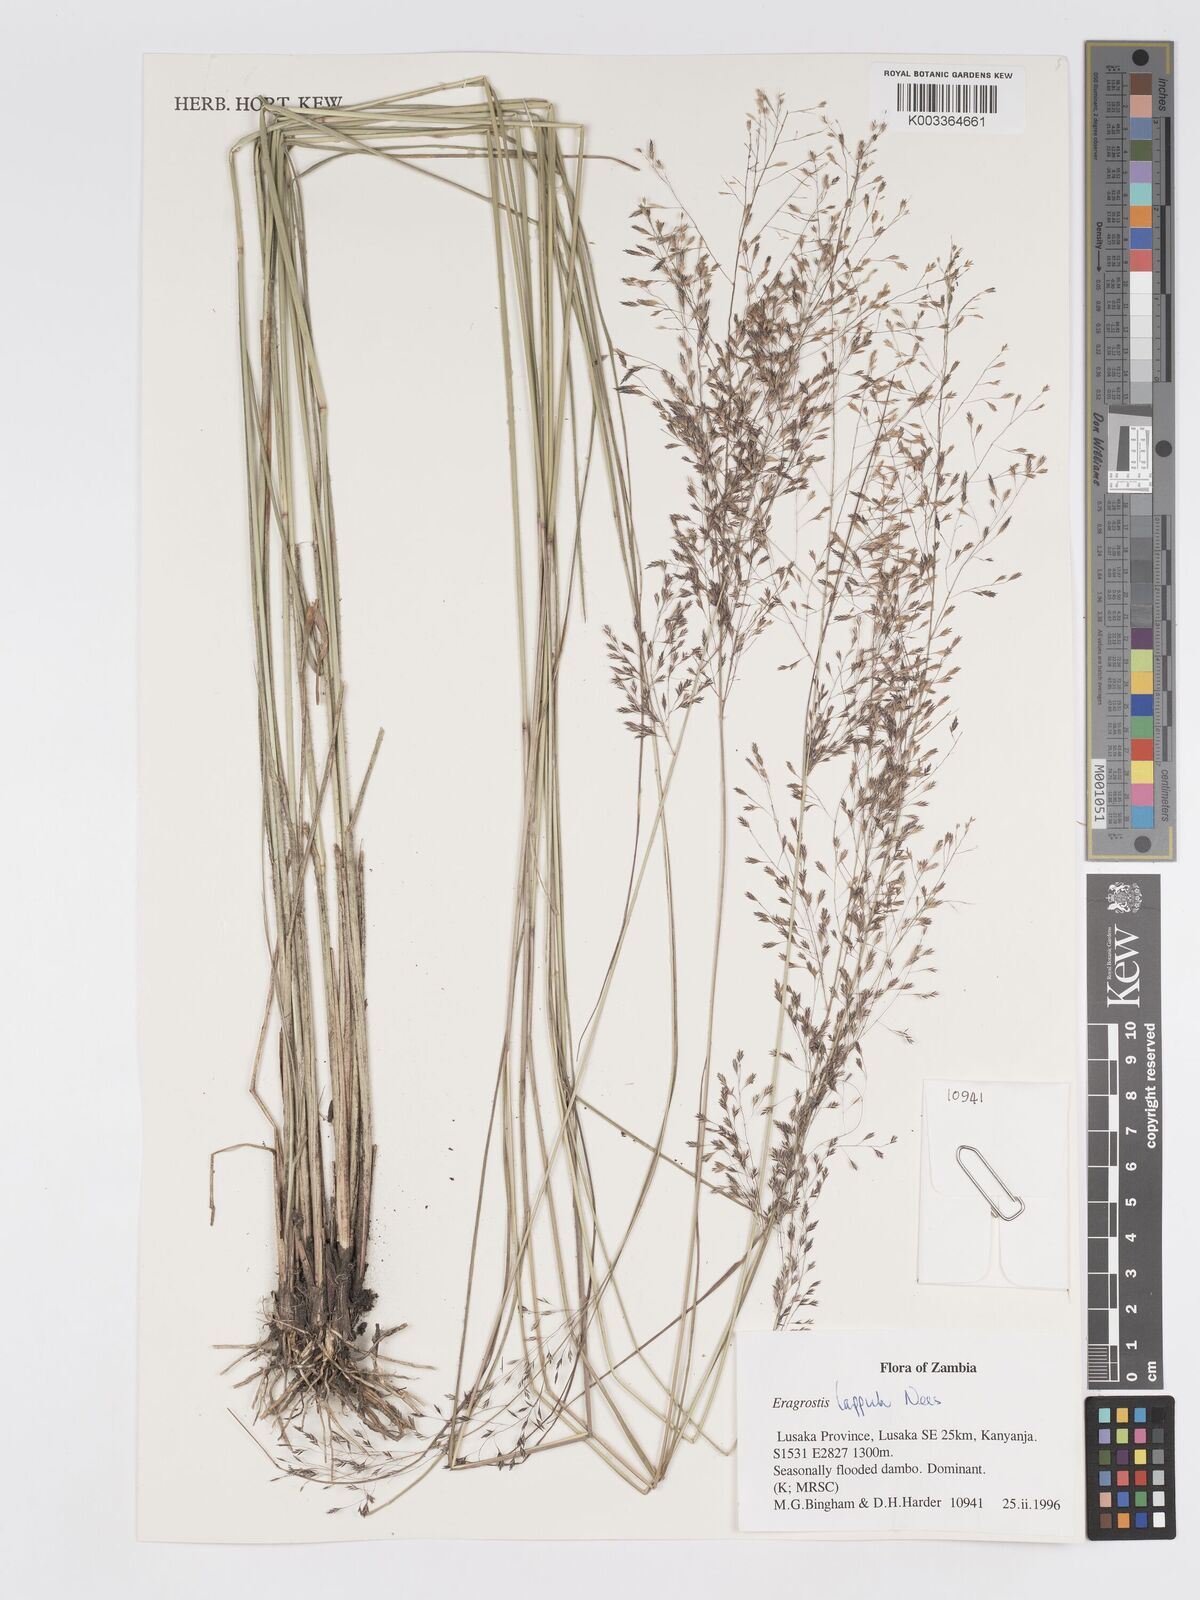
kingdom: Plantae
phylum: Tracheophyta
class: Liliopsida
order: Poales
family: Poaceae
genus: Eragrostis
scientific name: Eragrostis lappula
